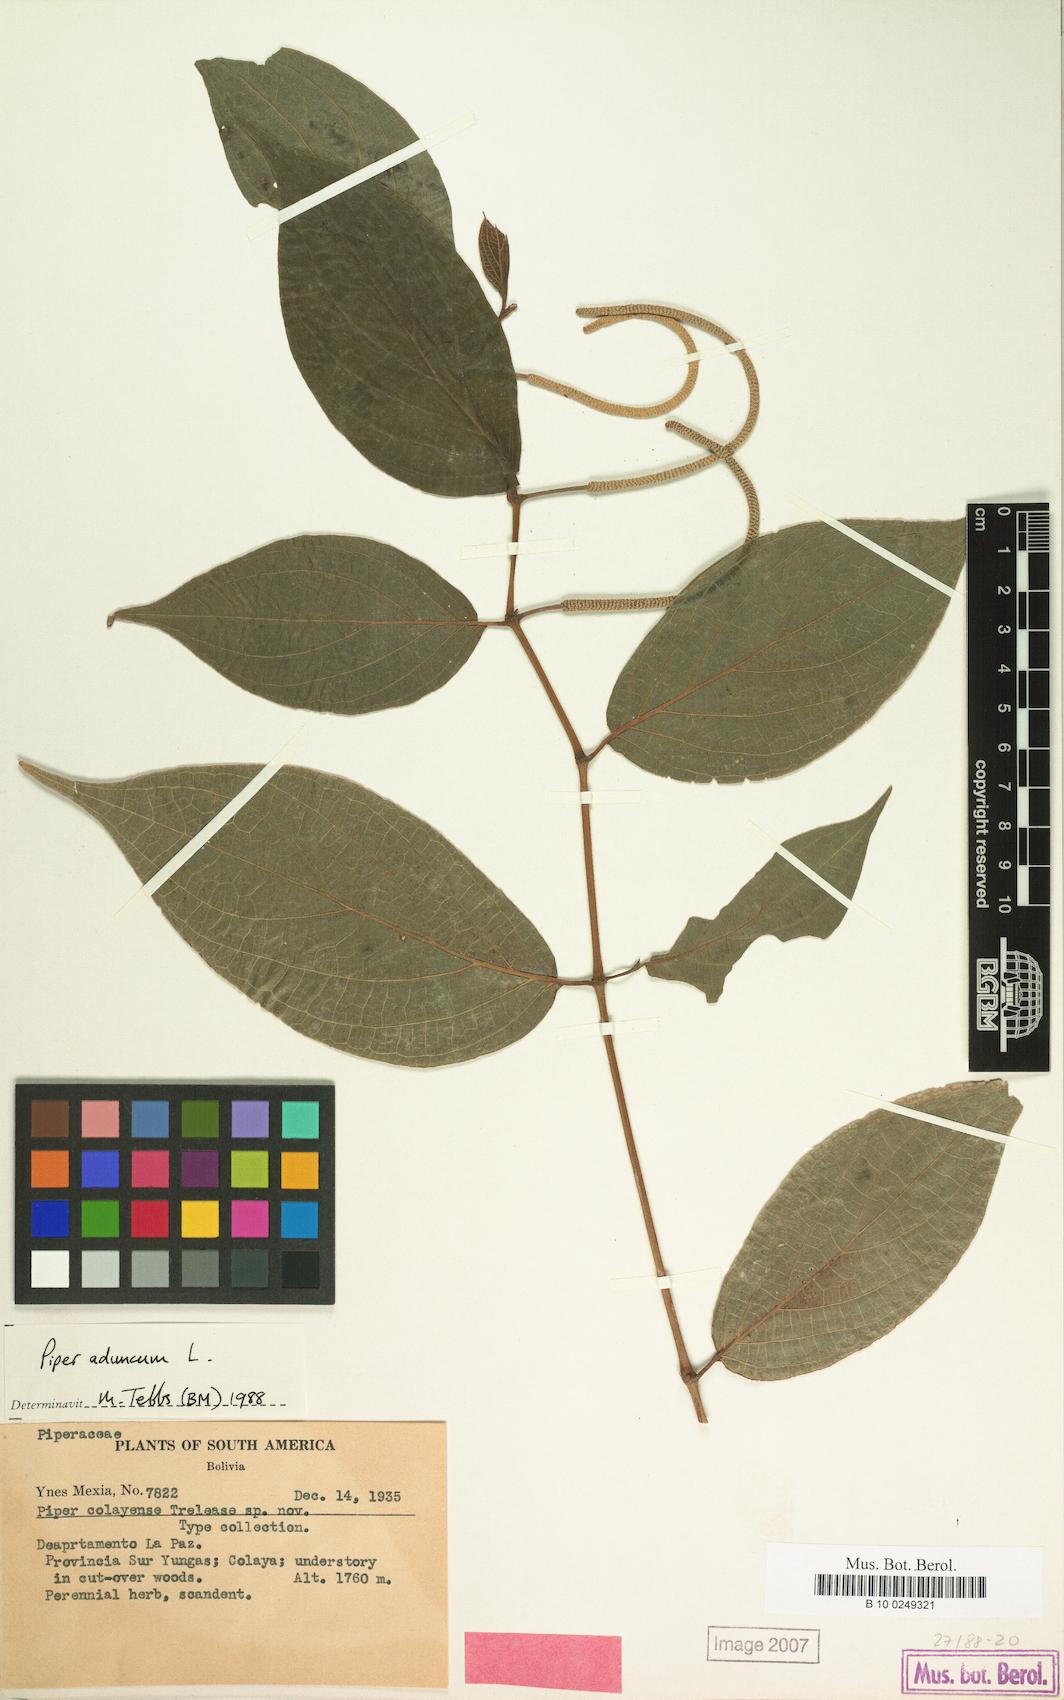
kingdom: Plantae
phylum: Tracheophyta
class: Magnoliopsida
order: Piperales
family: Piperaceae
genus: Piper
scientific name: Piper aduncum
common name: Spiked pepper
